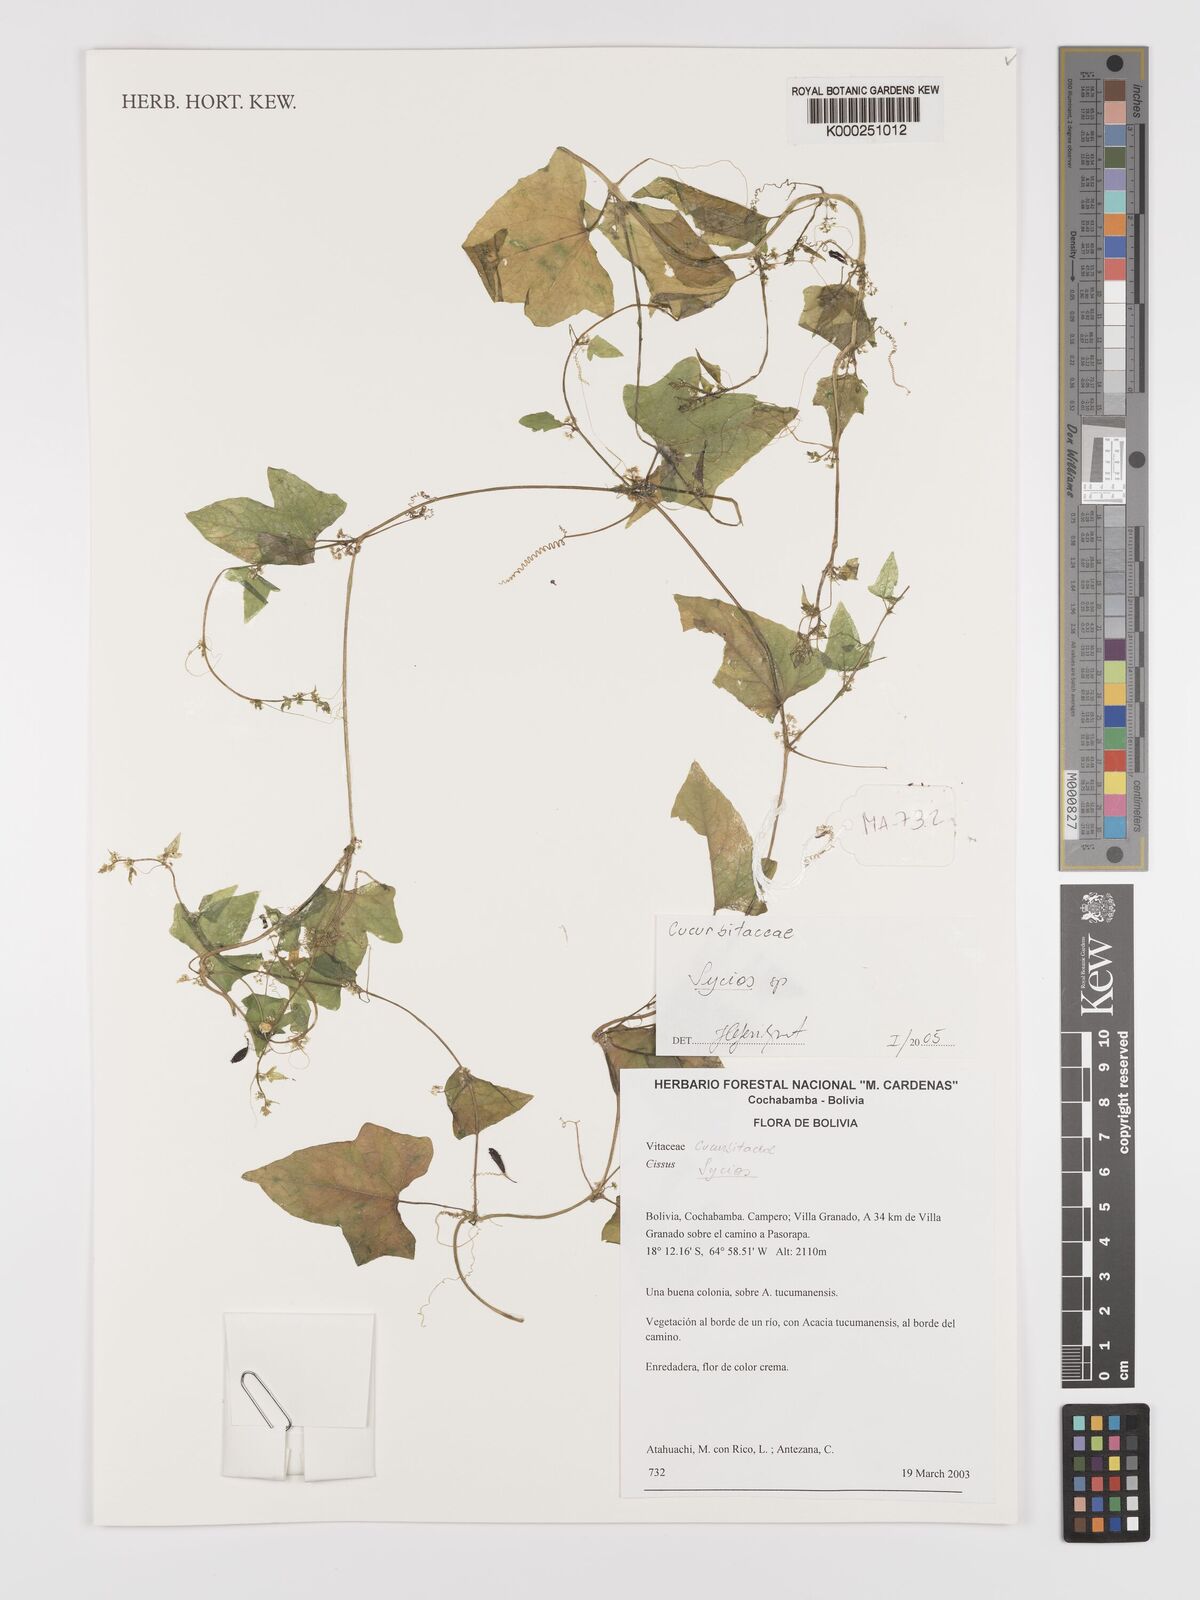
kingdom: Plantae
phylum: Tracheophyta
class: Magnoliopsida
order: Cucurbitales
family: Cucurbitaceae
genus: Sicyos
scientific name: Sicyos
